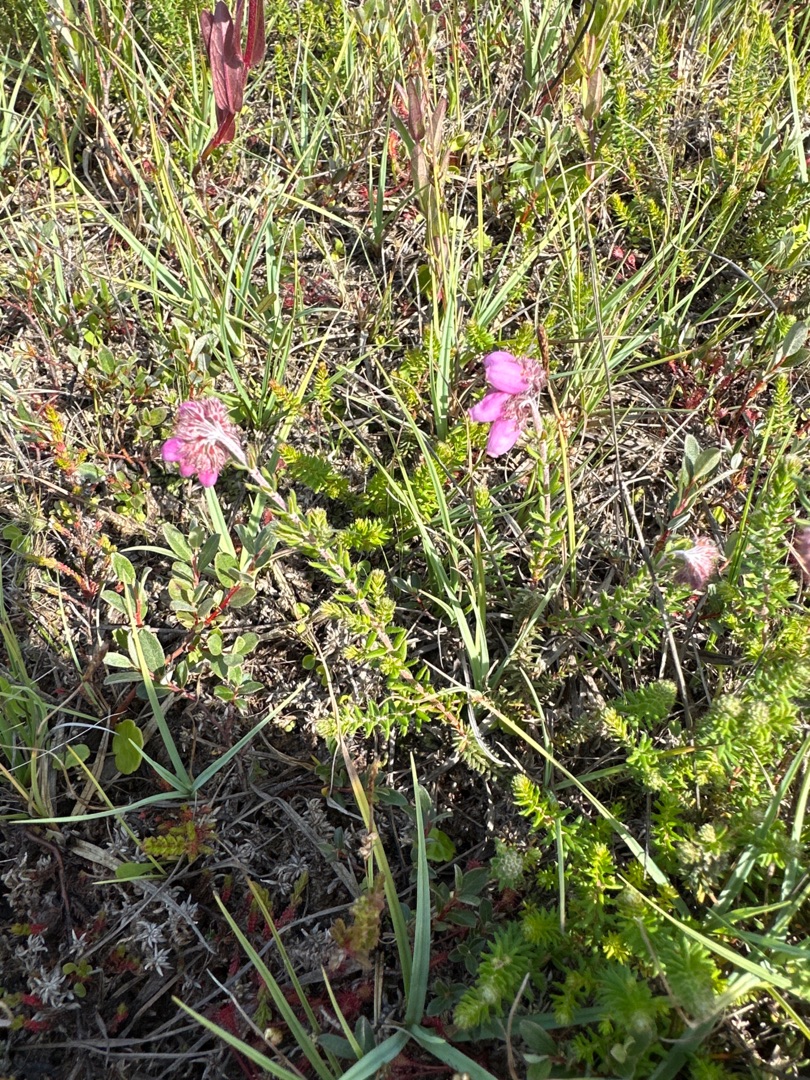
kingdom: Plantae
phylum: Tracheophyta
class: Magnoliopsida
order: Ericales
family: Ericaceae
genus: Erica
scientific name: Erica tetralix
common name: Klokkelyng
